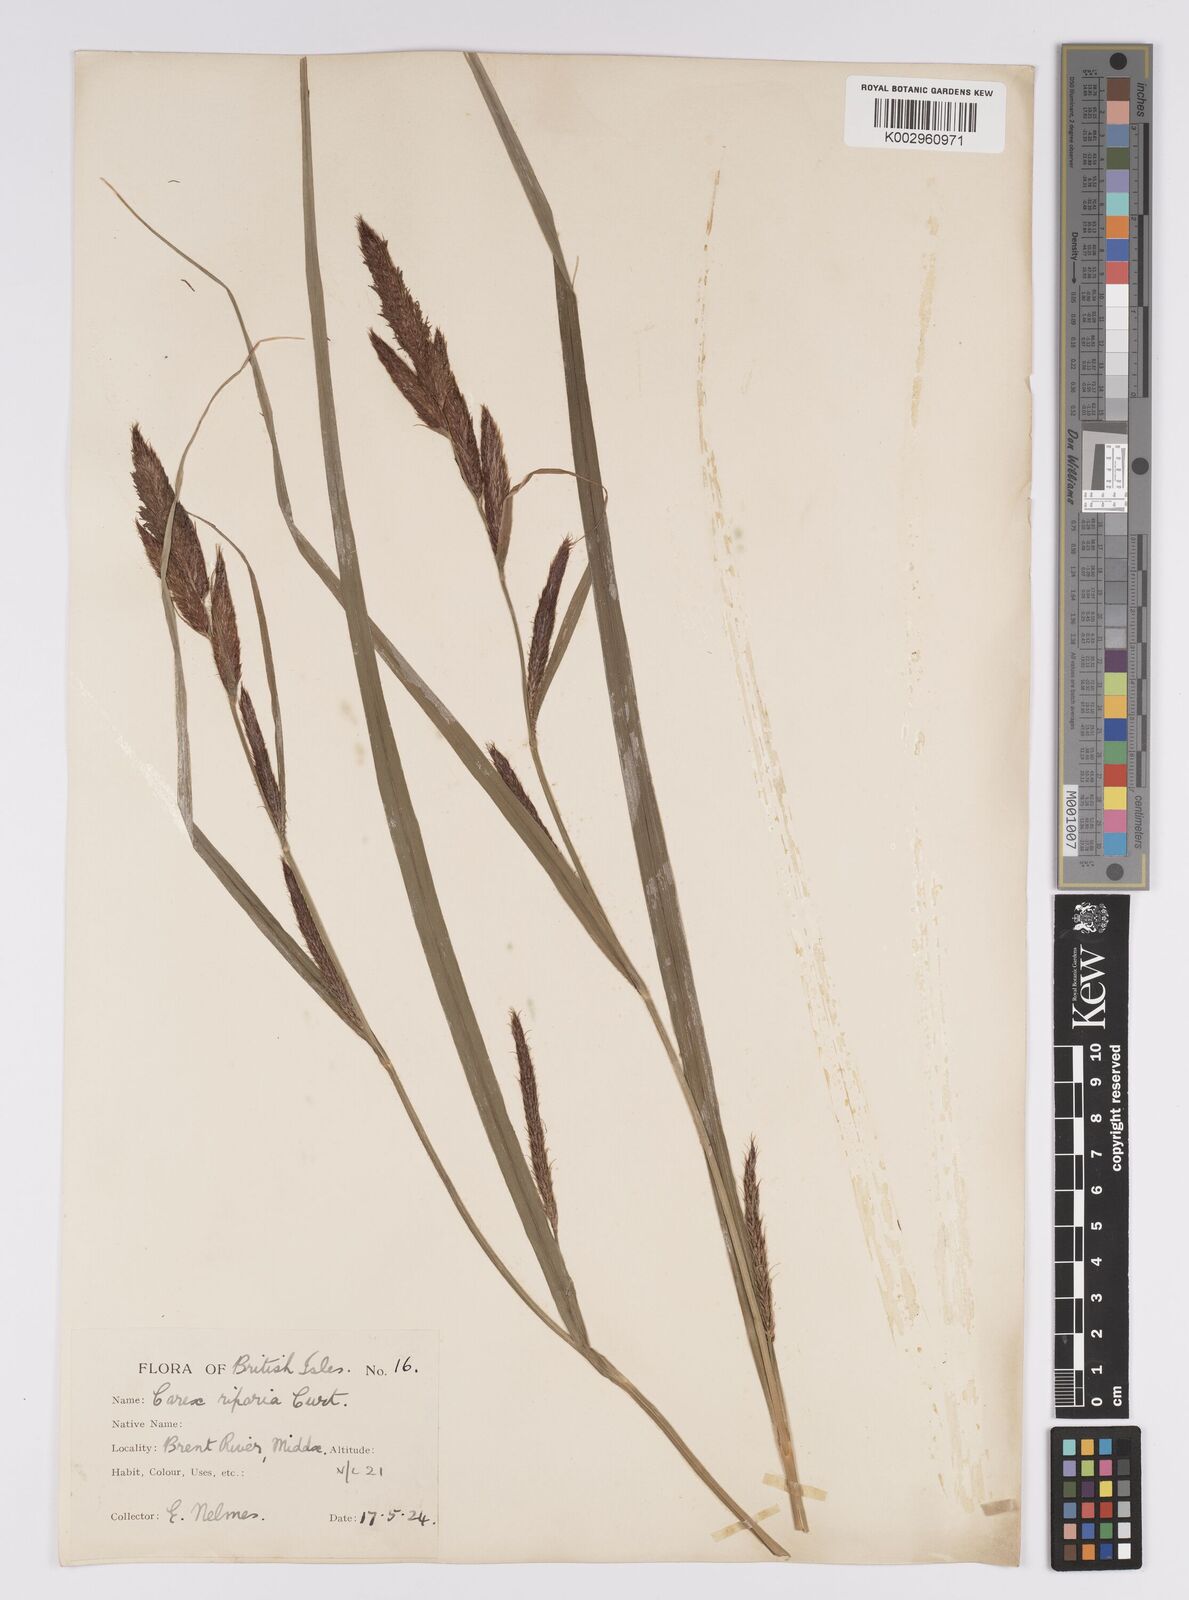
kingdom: Plantae
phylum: Tracheophyta
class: Liliopsida
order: Poales
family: Cyperaceae
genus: Carex
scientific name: Carex riparia
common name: Greater pond-sedge
